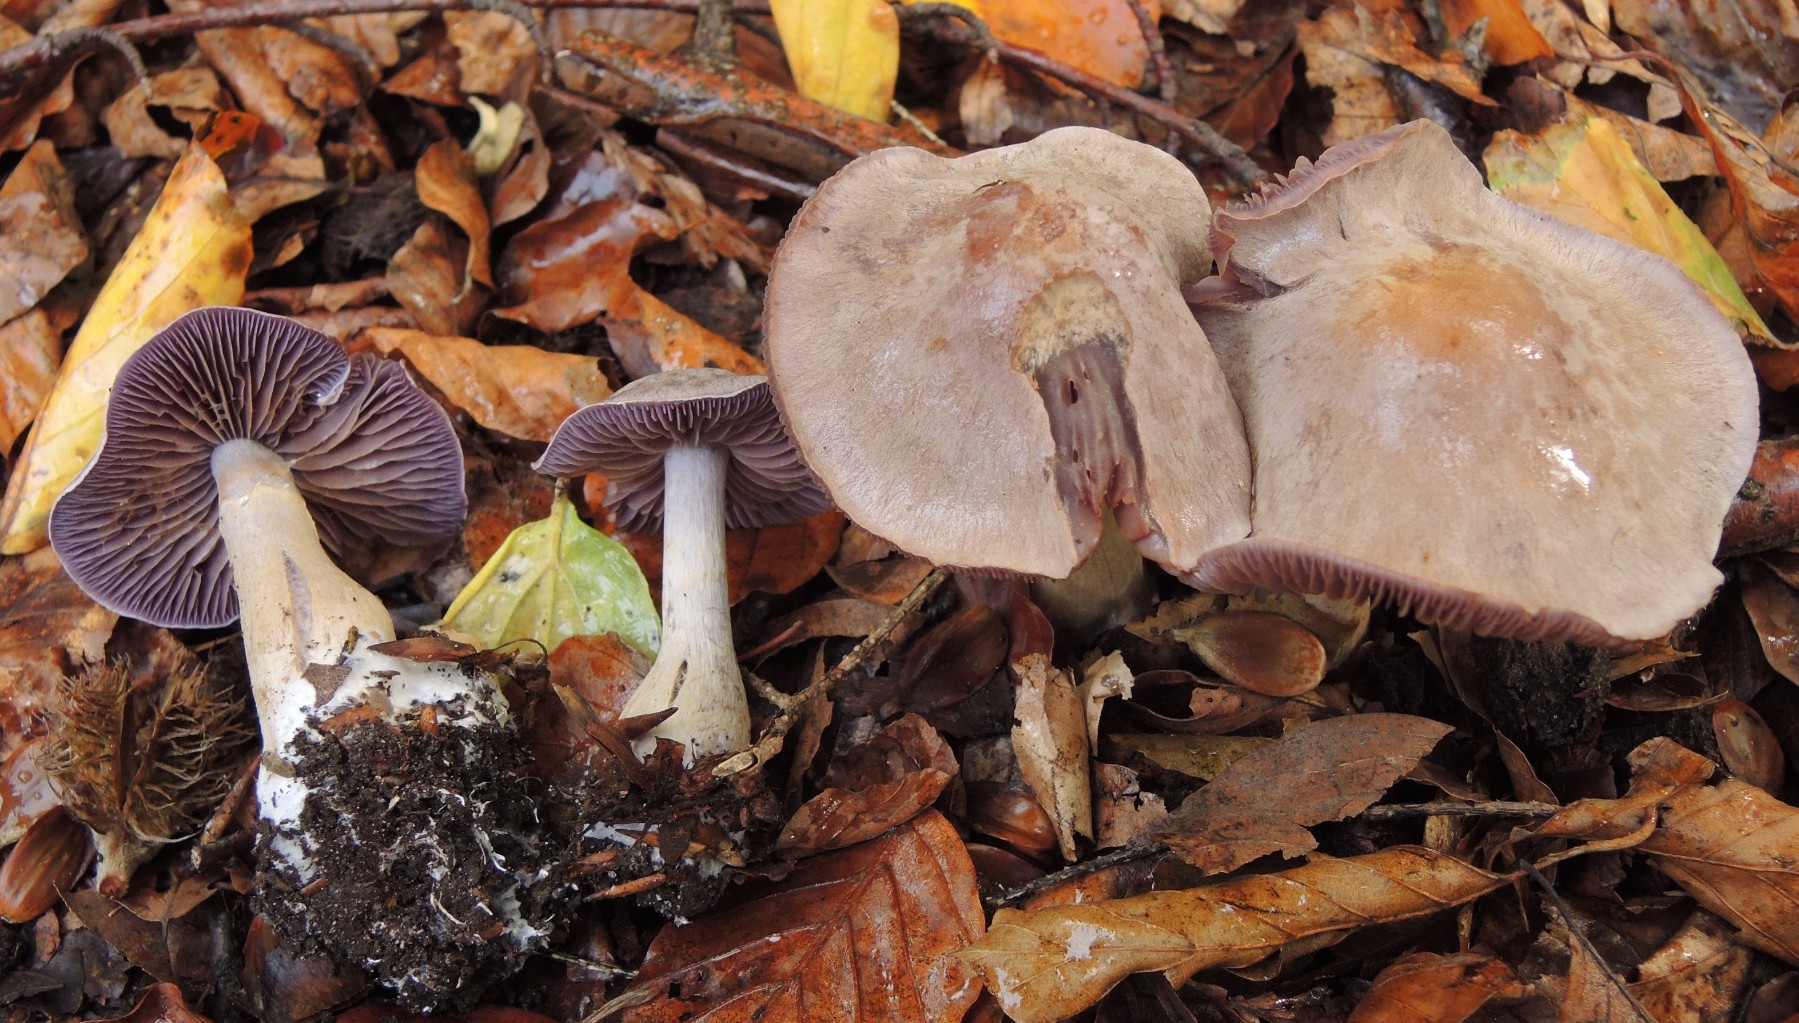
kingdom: Fungi
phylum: Basidiomycota
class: Agaricomycetes
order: Agaricales
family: Cortinariaceae
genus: Cortinarius
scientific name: Cortinarius
